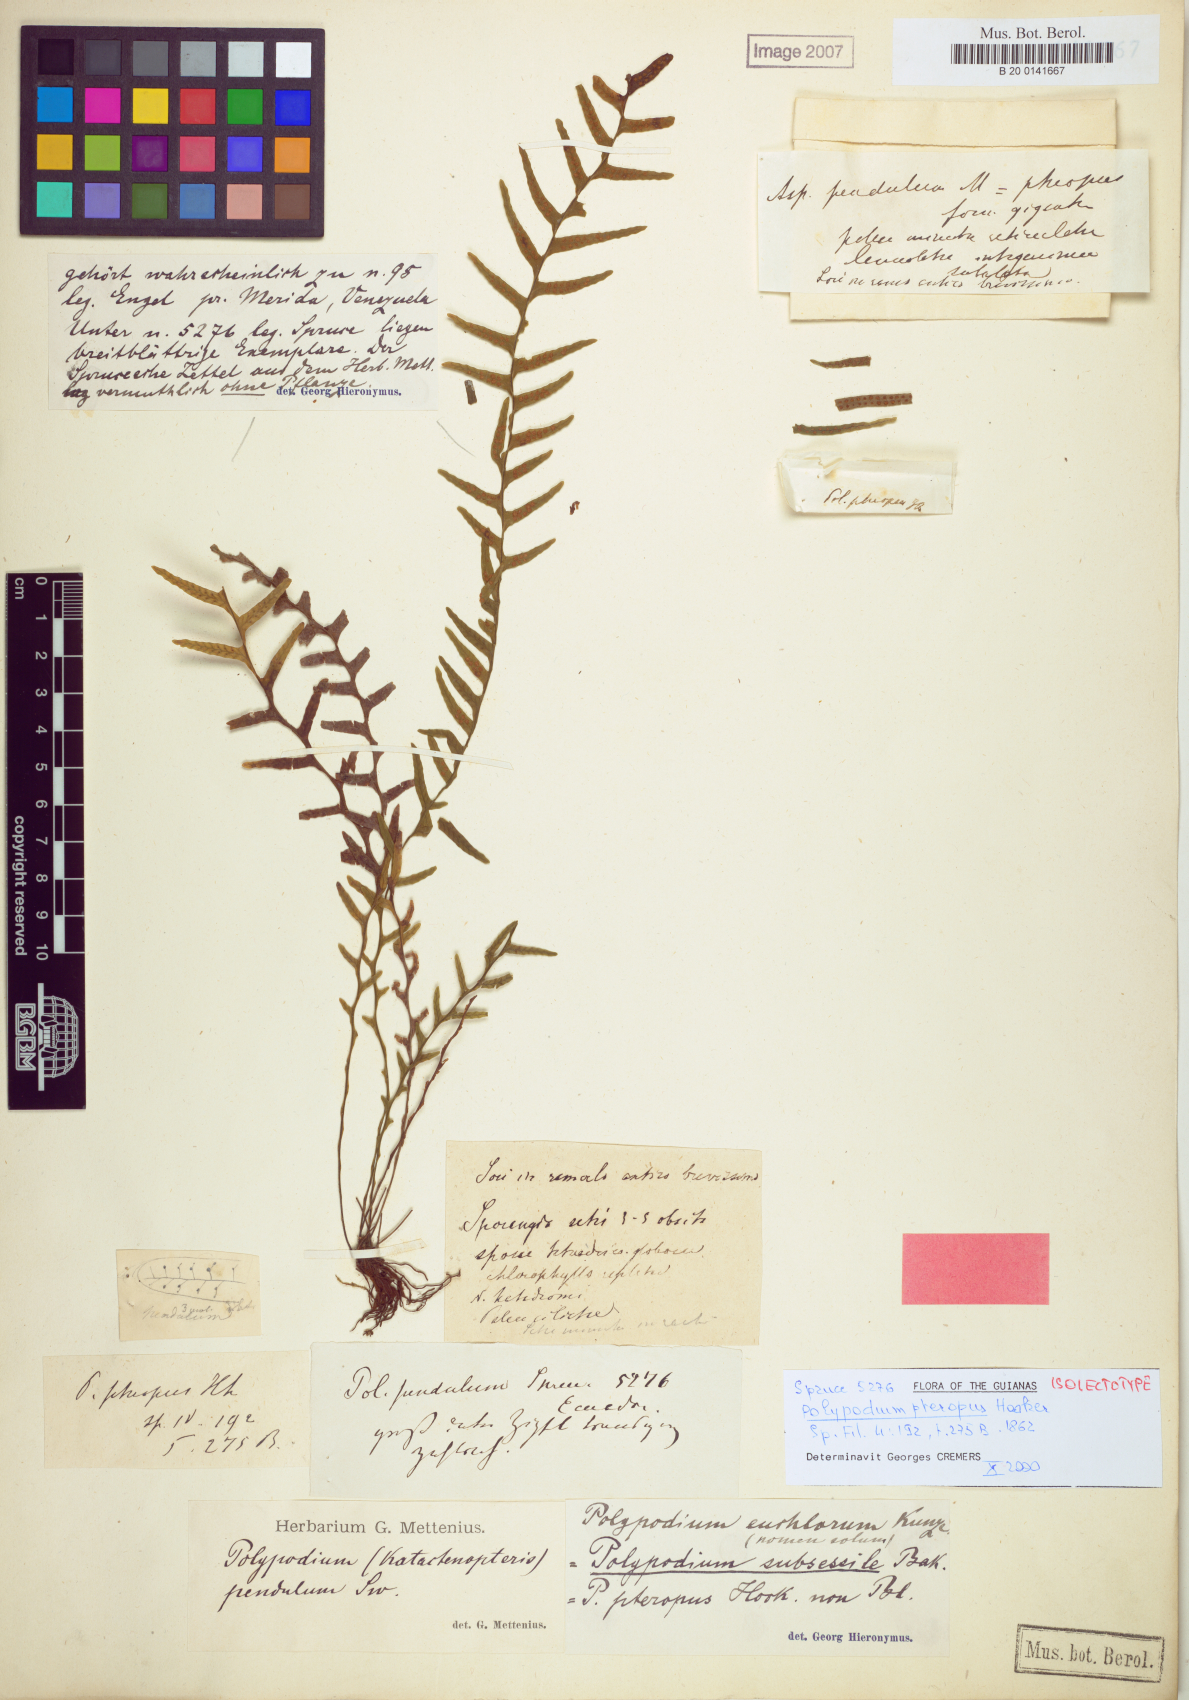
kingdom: Plantae
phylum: Tracheophyta
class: Polypodiopsida
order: Polypodiales
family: Polypodiaceae
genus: Lellingeria
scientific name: Lellingeria laxifolia
